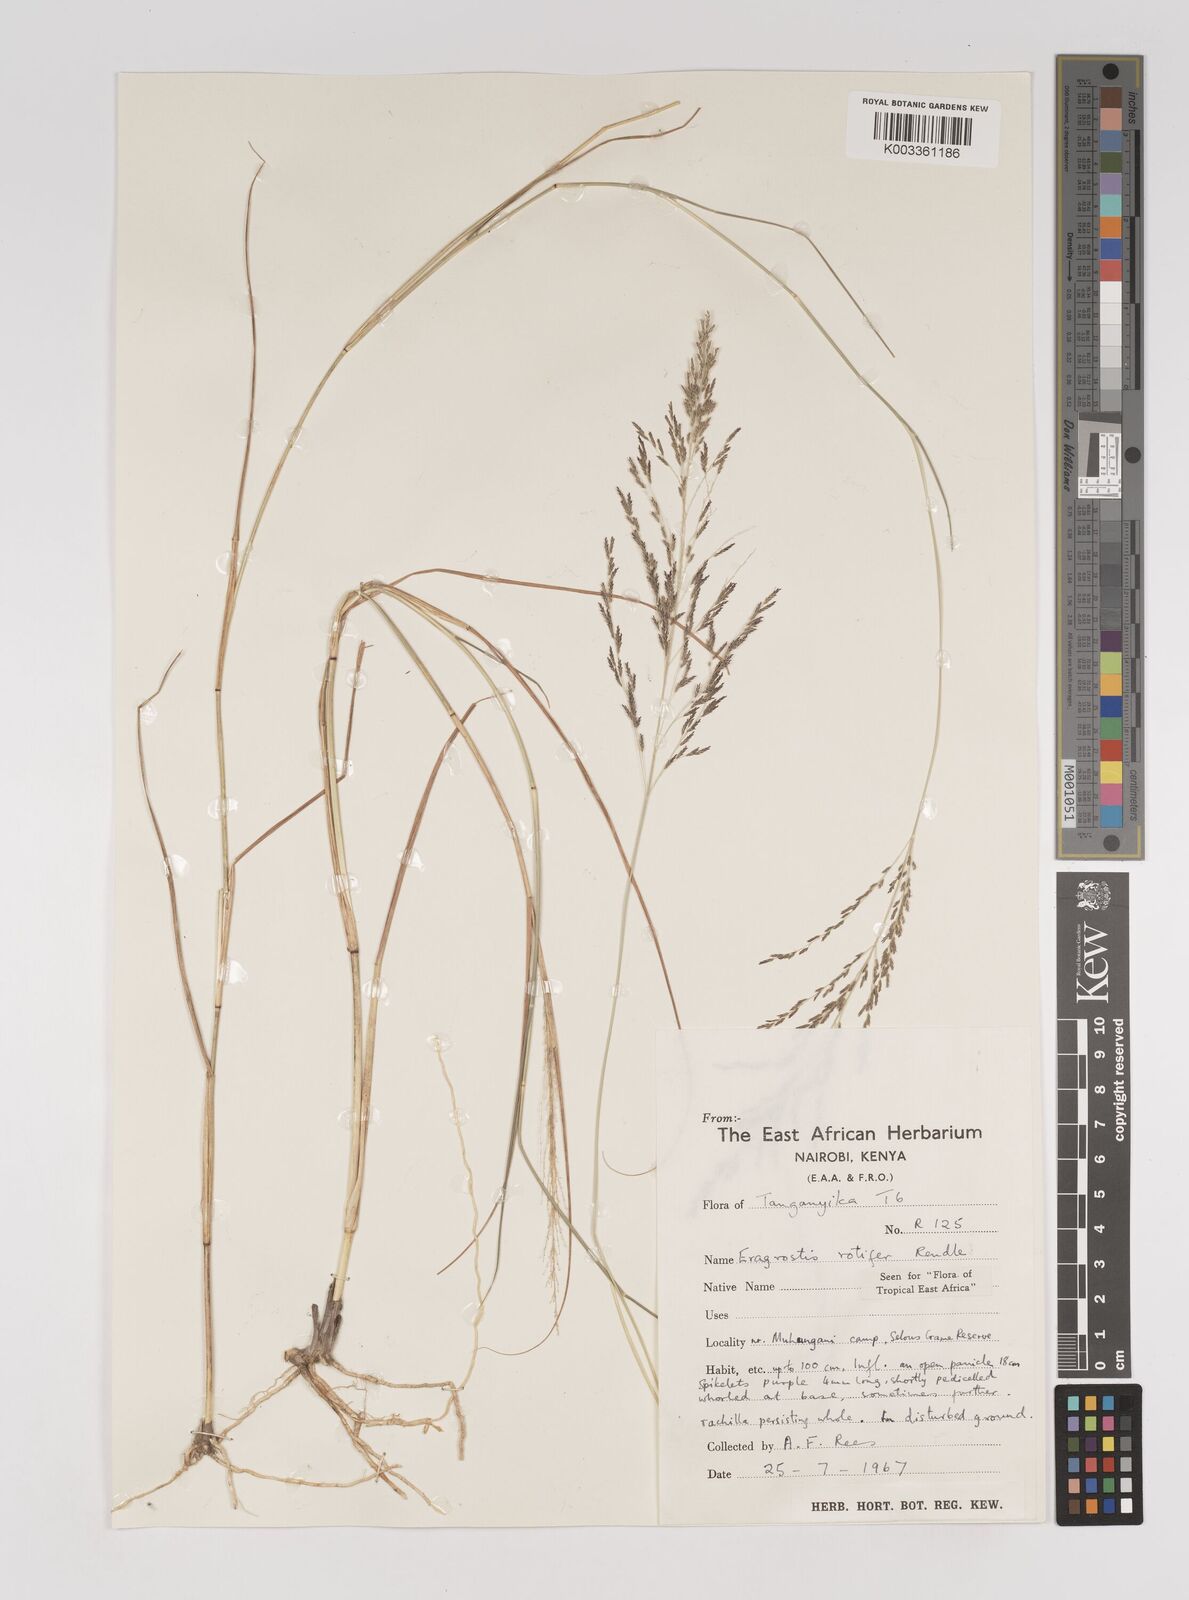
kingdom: Plantae
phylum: Tracheophyta
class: Liliopsida
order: Poales
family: Poaceae
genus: Eragrostis
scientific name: Eragrostis rotifer
